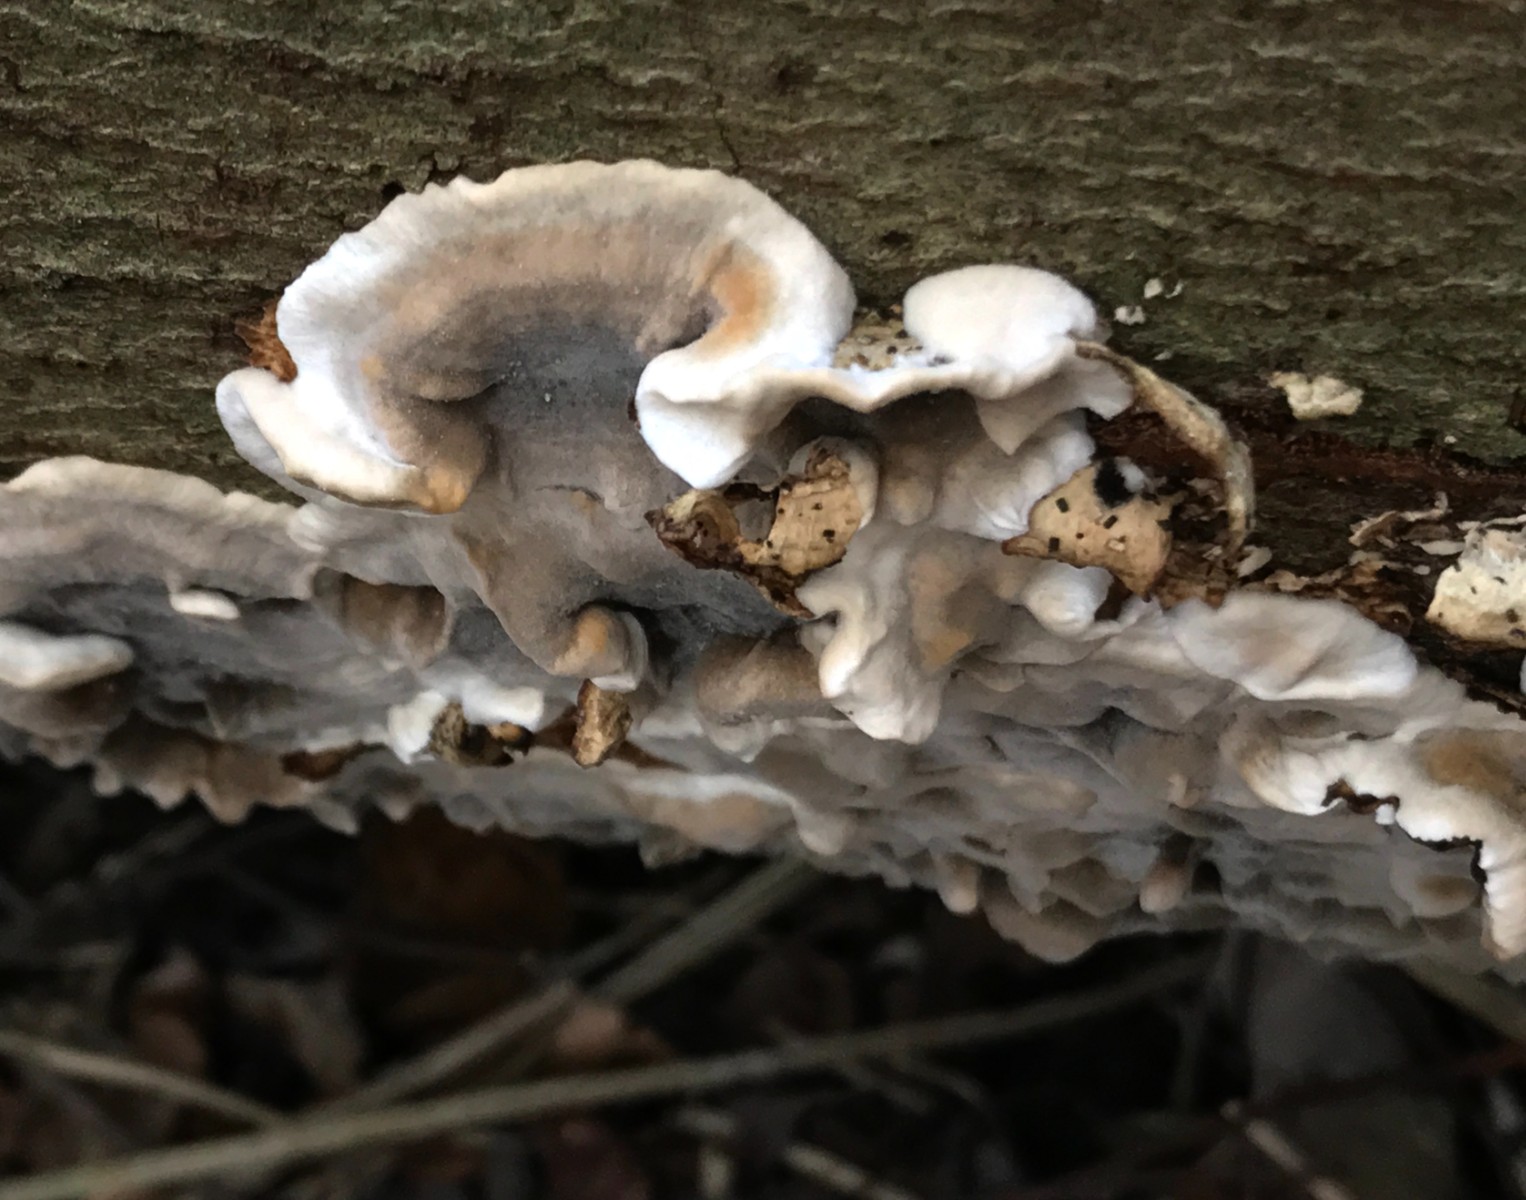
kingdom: Fungi
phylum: Basidiomycota
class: Agaricomycetes
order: Polyporales
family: Phanerochaetaceae
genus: Bjerkandera
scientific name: Bjerkandera adusta
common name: sveden sodporesvamp
